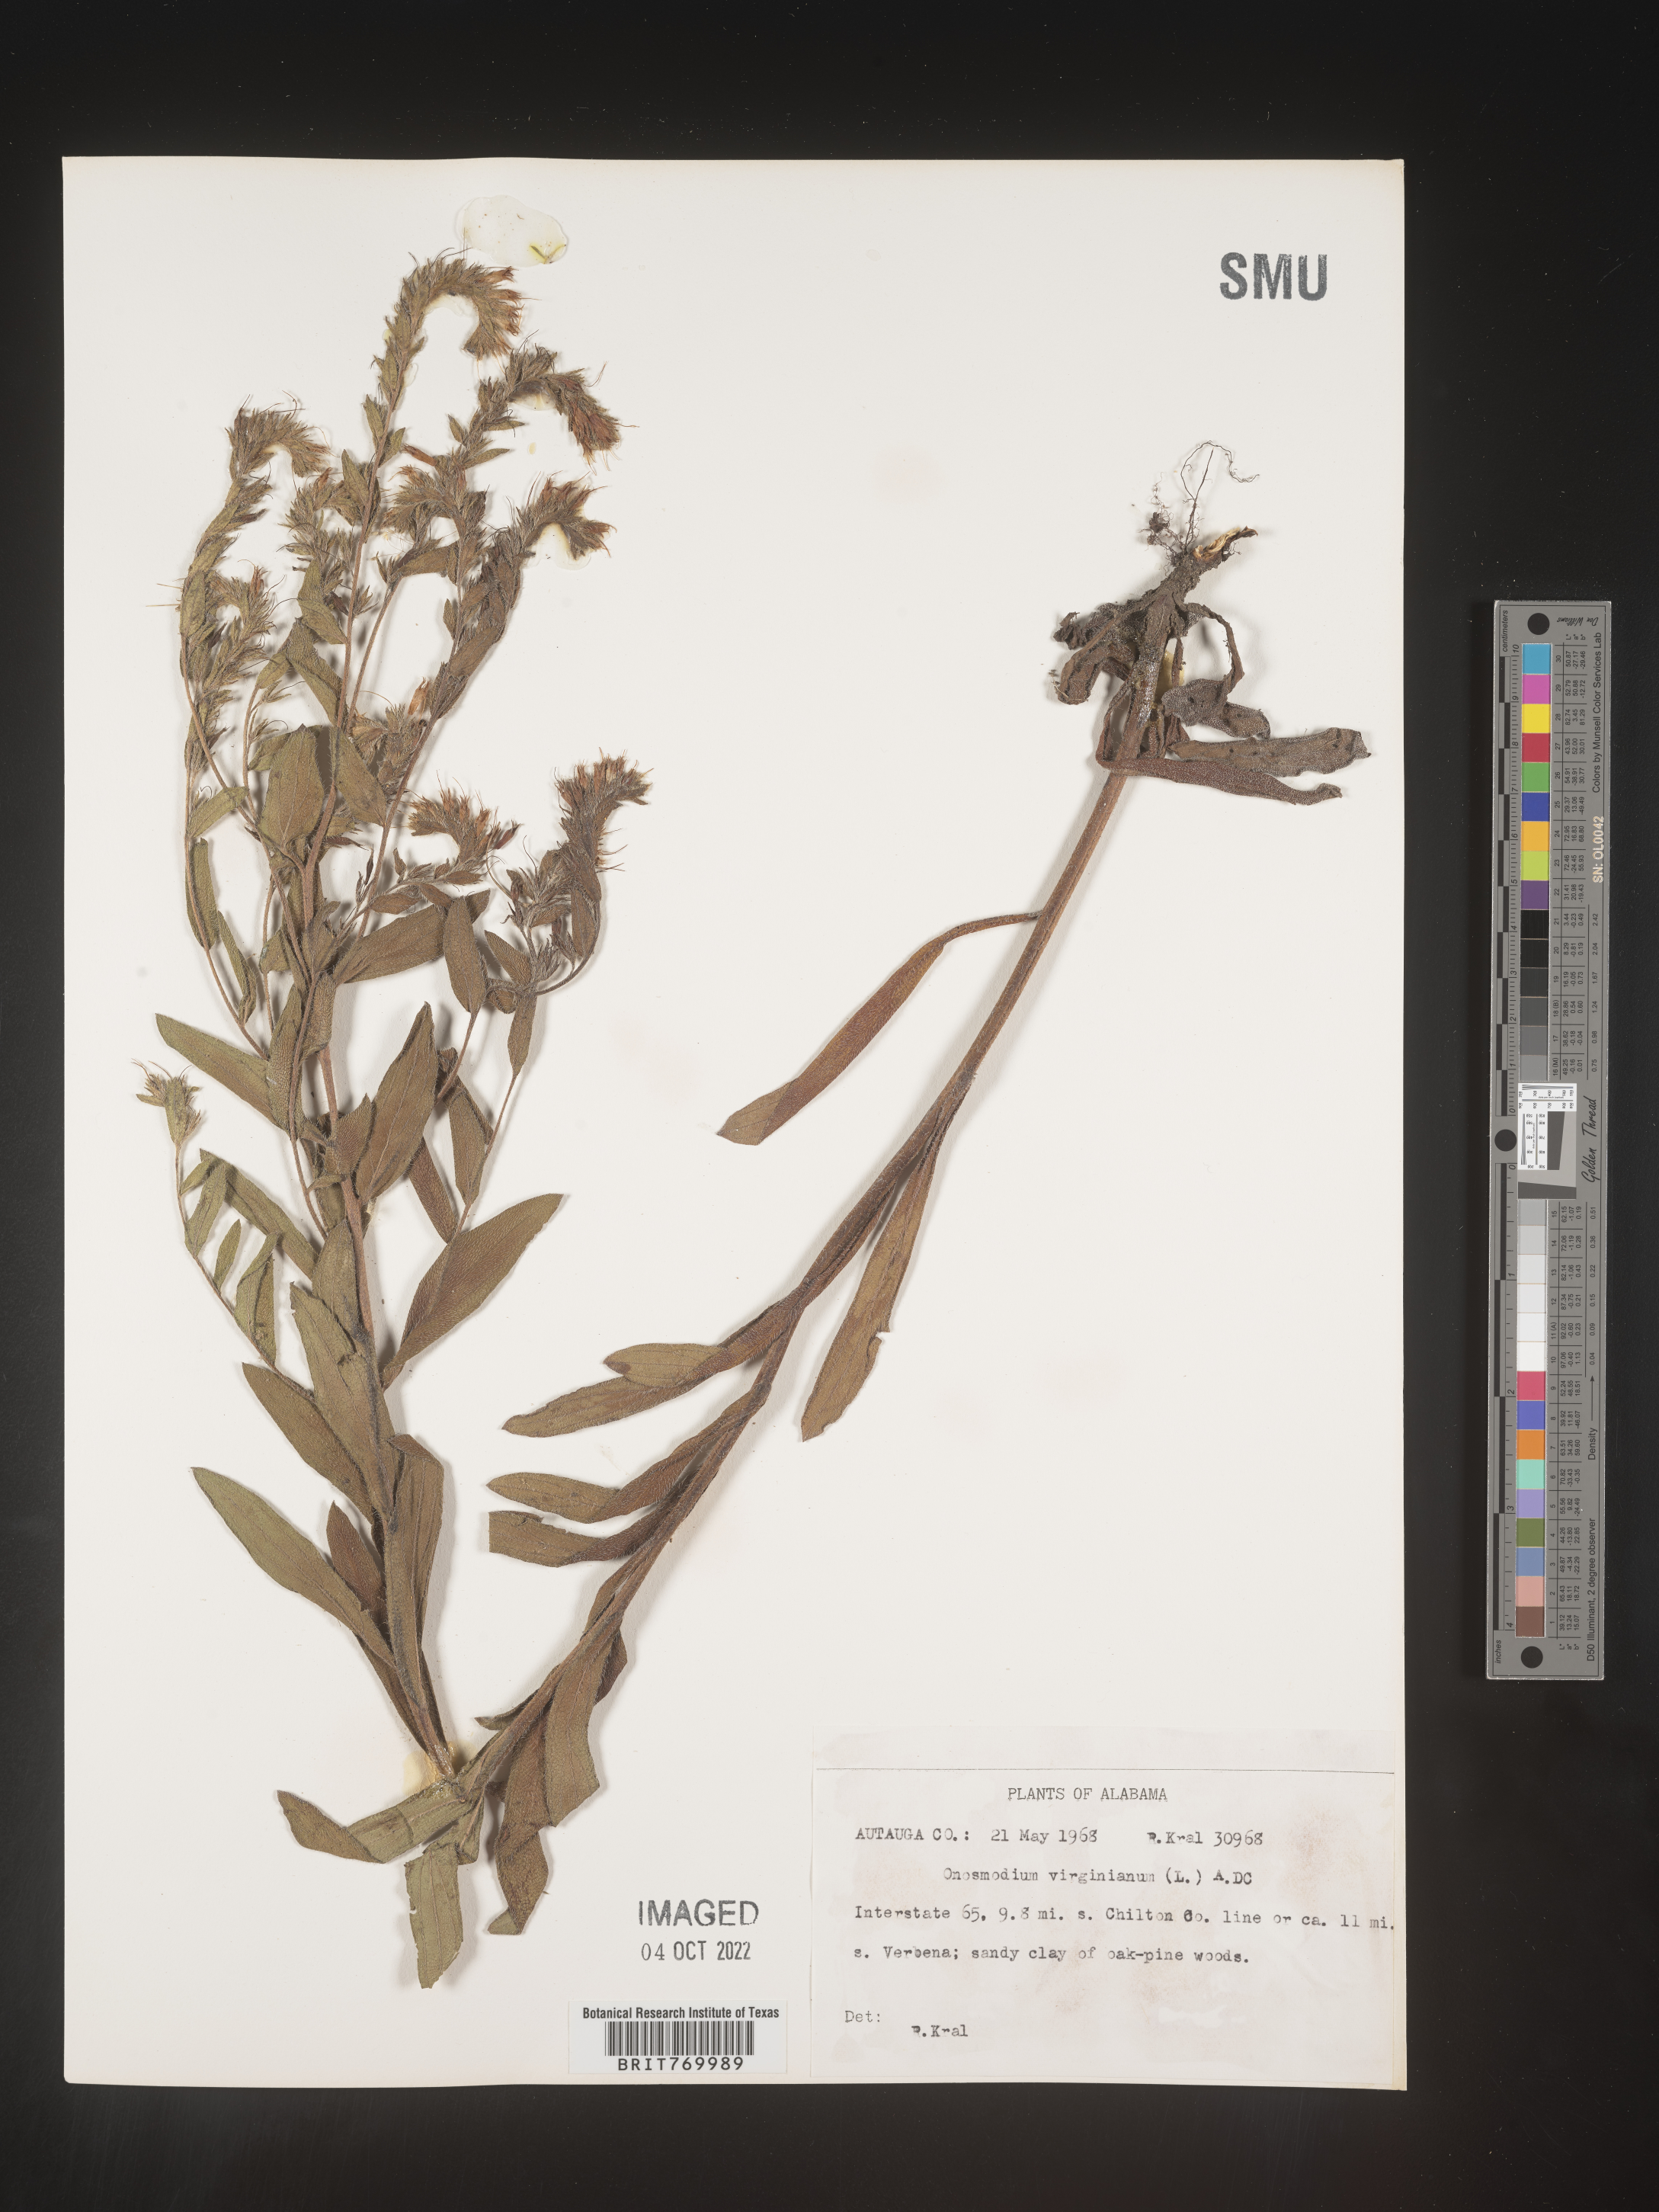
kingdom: Plantae
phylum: Tracheophyta
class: Magnoliopsida
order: Boraginales
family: Boraginaceae
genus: Lithospermum
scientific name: Lithospermum virginianum
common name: Eastern false gromwell
